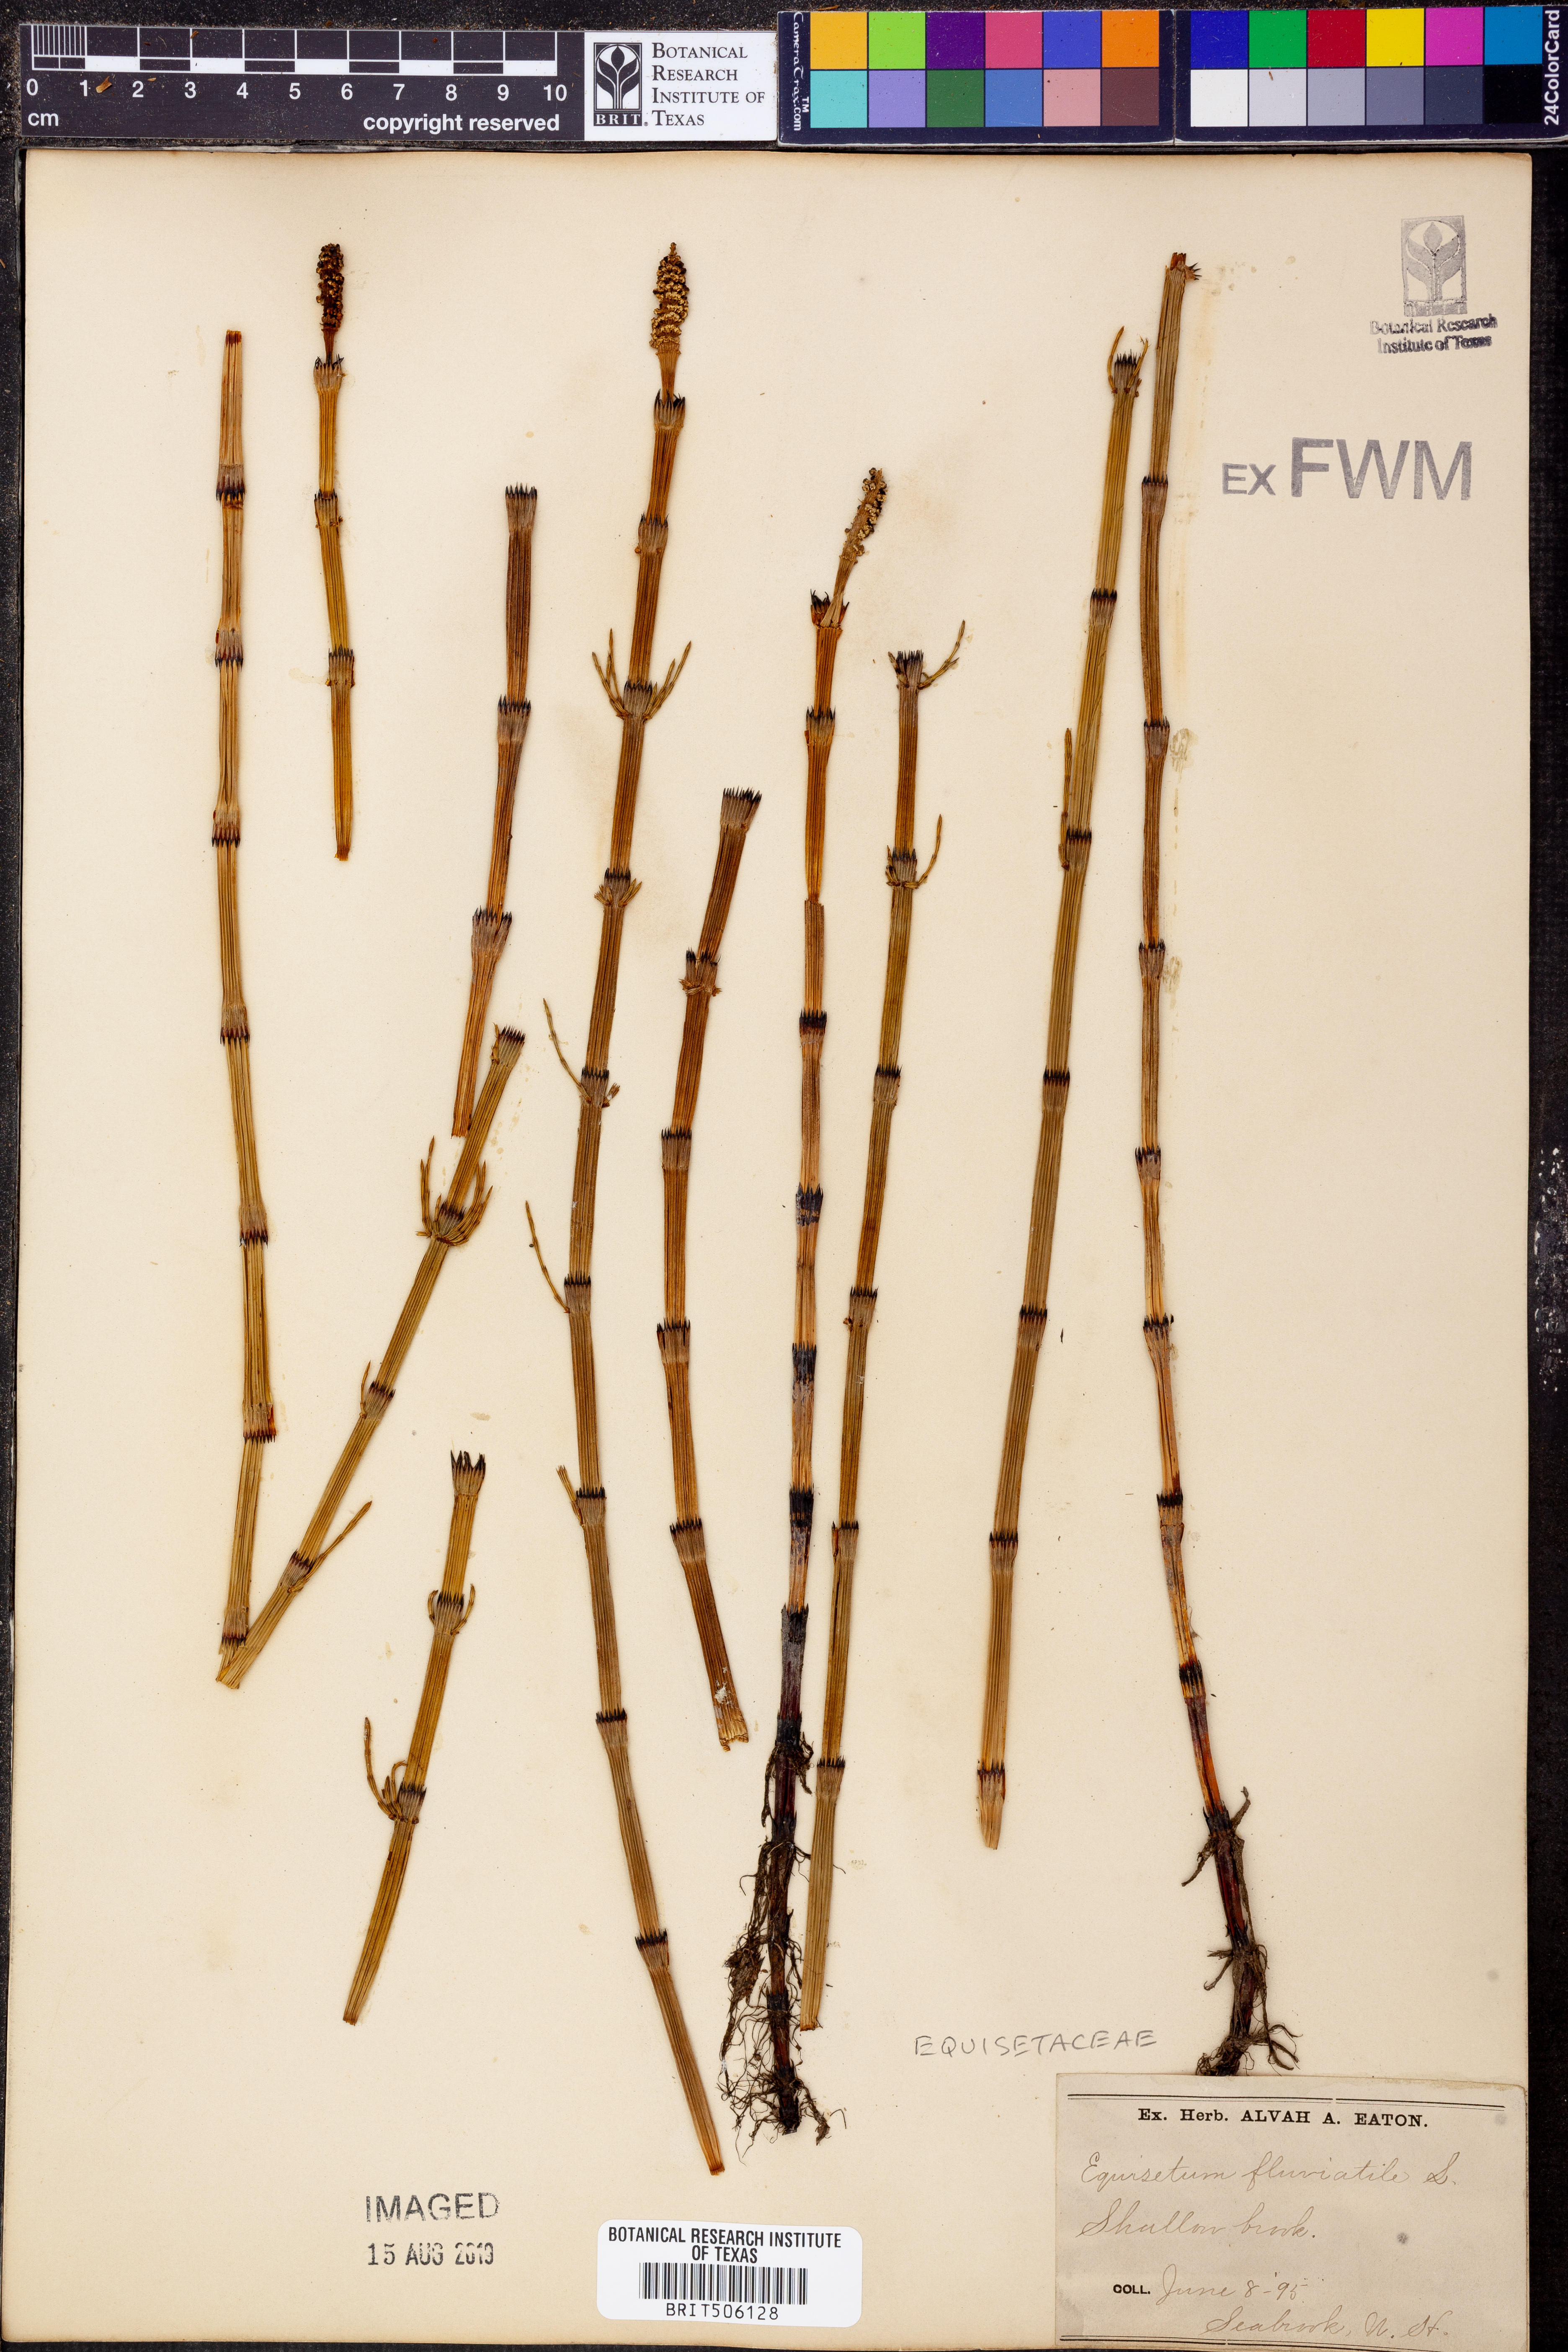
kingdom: Plantae
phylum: Tracheophyta
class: Polypodiopsida
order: Equisetales
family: Equisetaceae
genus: Equisetum
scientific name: Equisetum fluviatile
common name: Water horsetail
